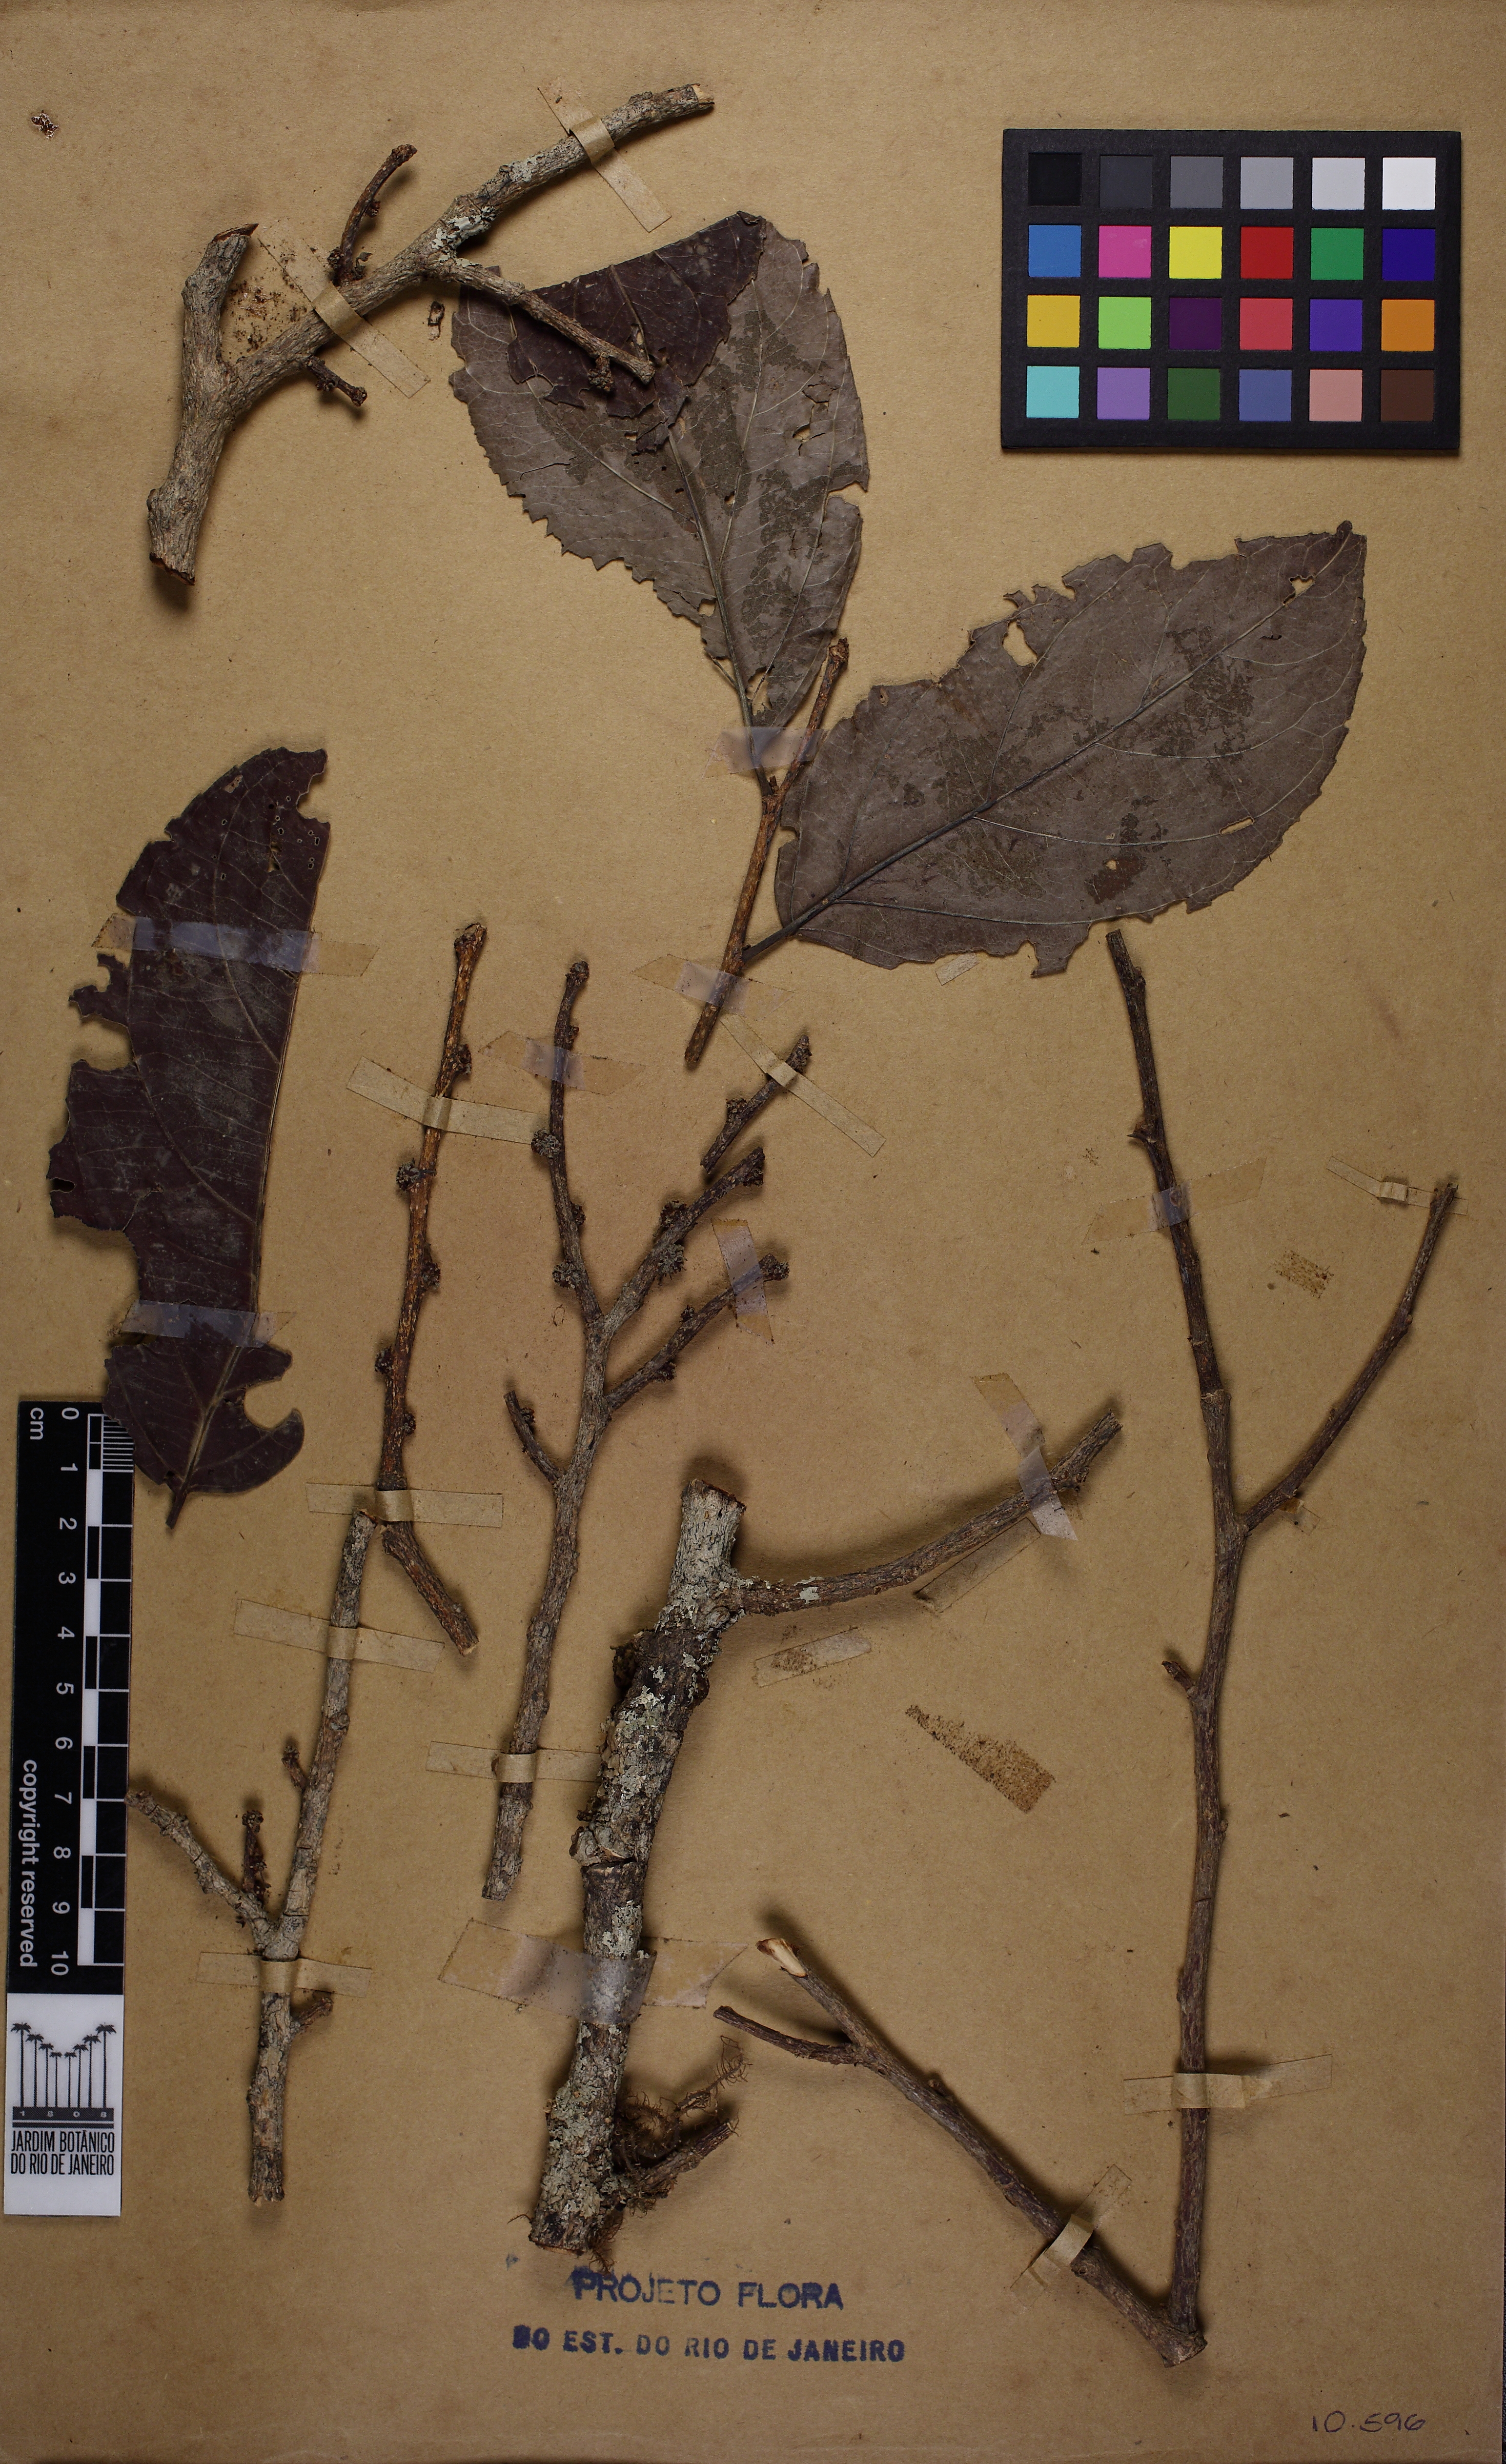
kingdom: Plantae
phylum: Tracheophyta
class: Magnoliopsida
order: Malpighiales
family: Salicaceae
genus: Casearia
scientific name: Casearia melliodora
